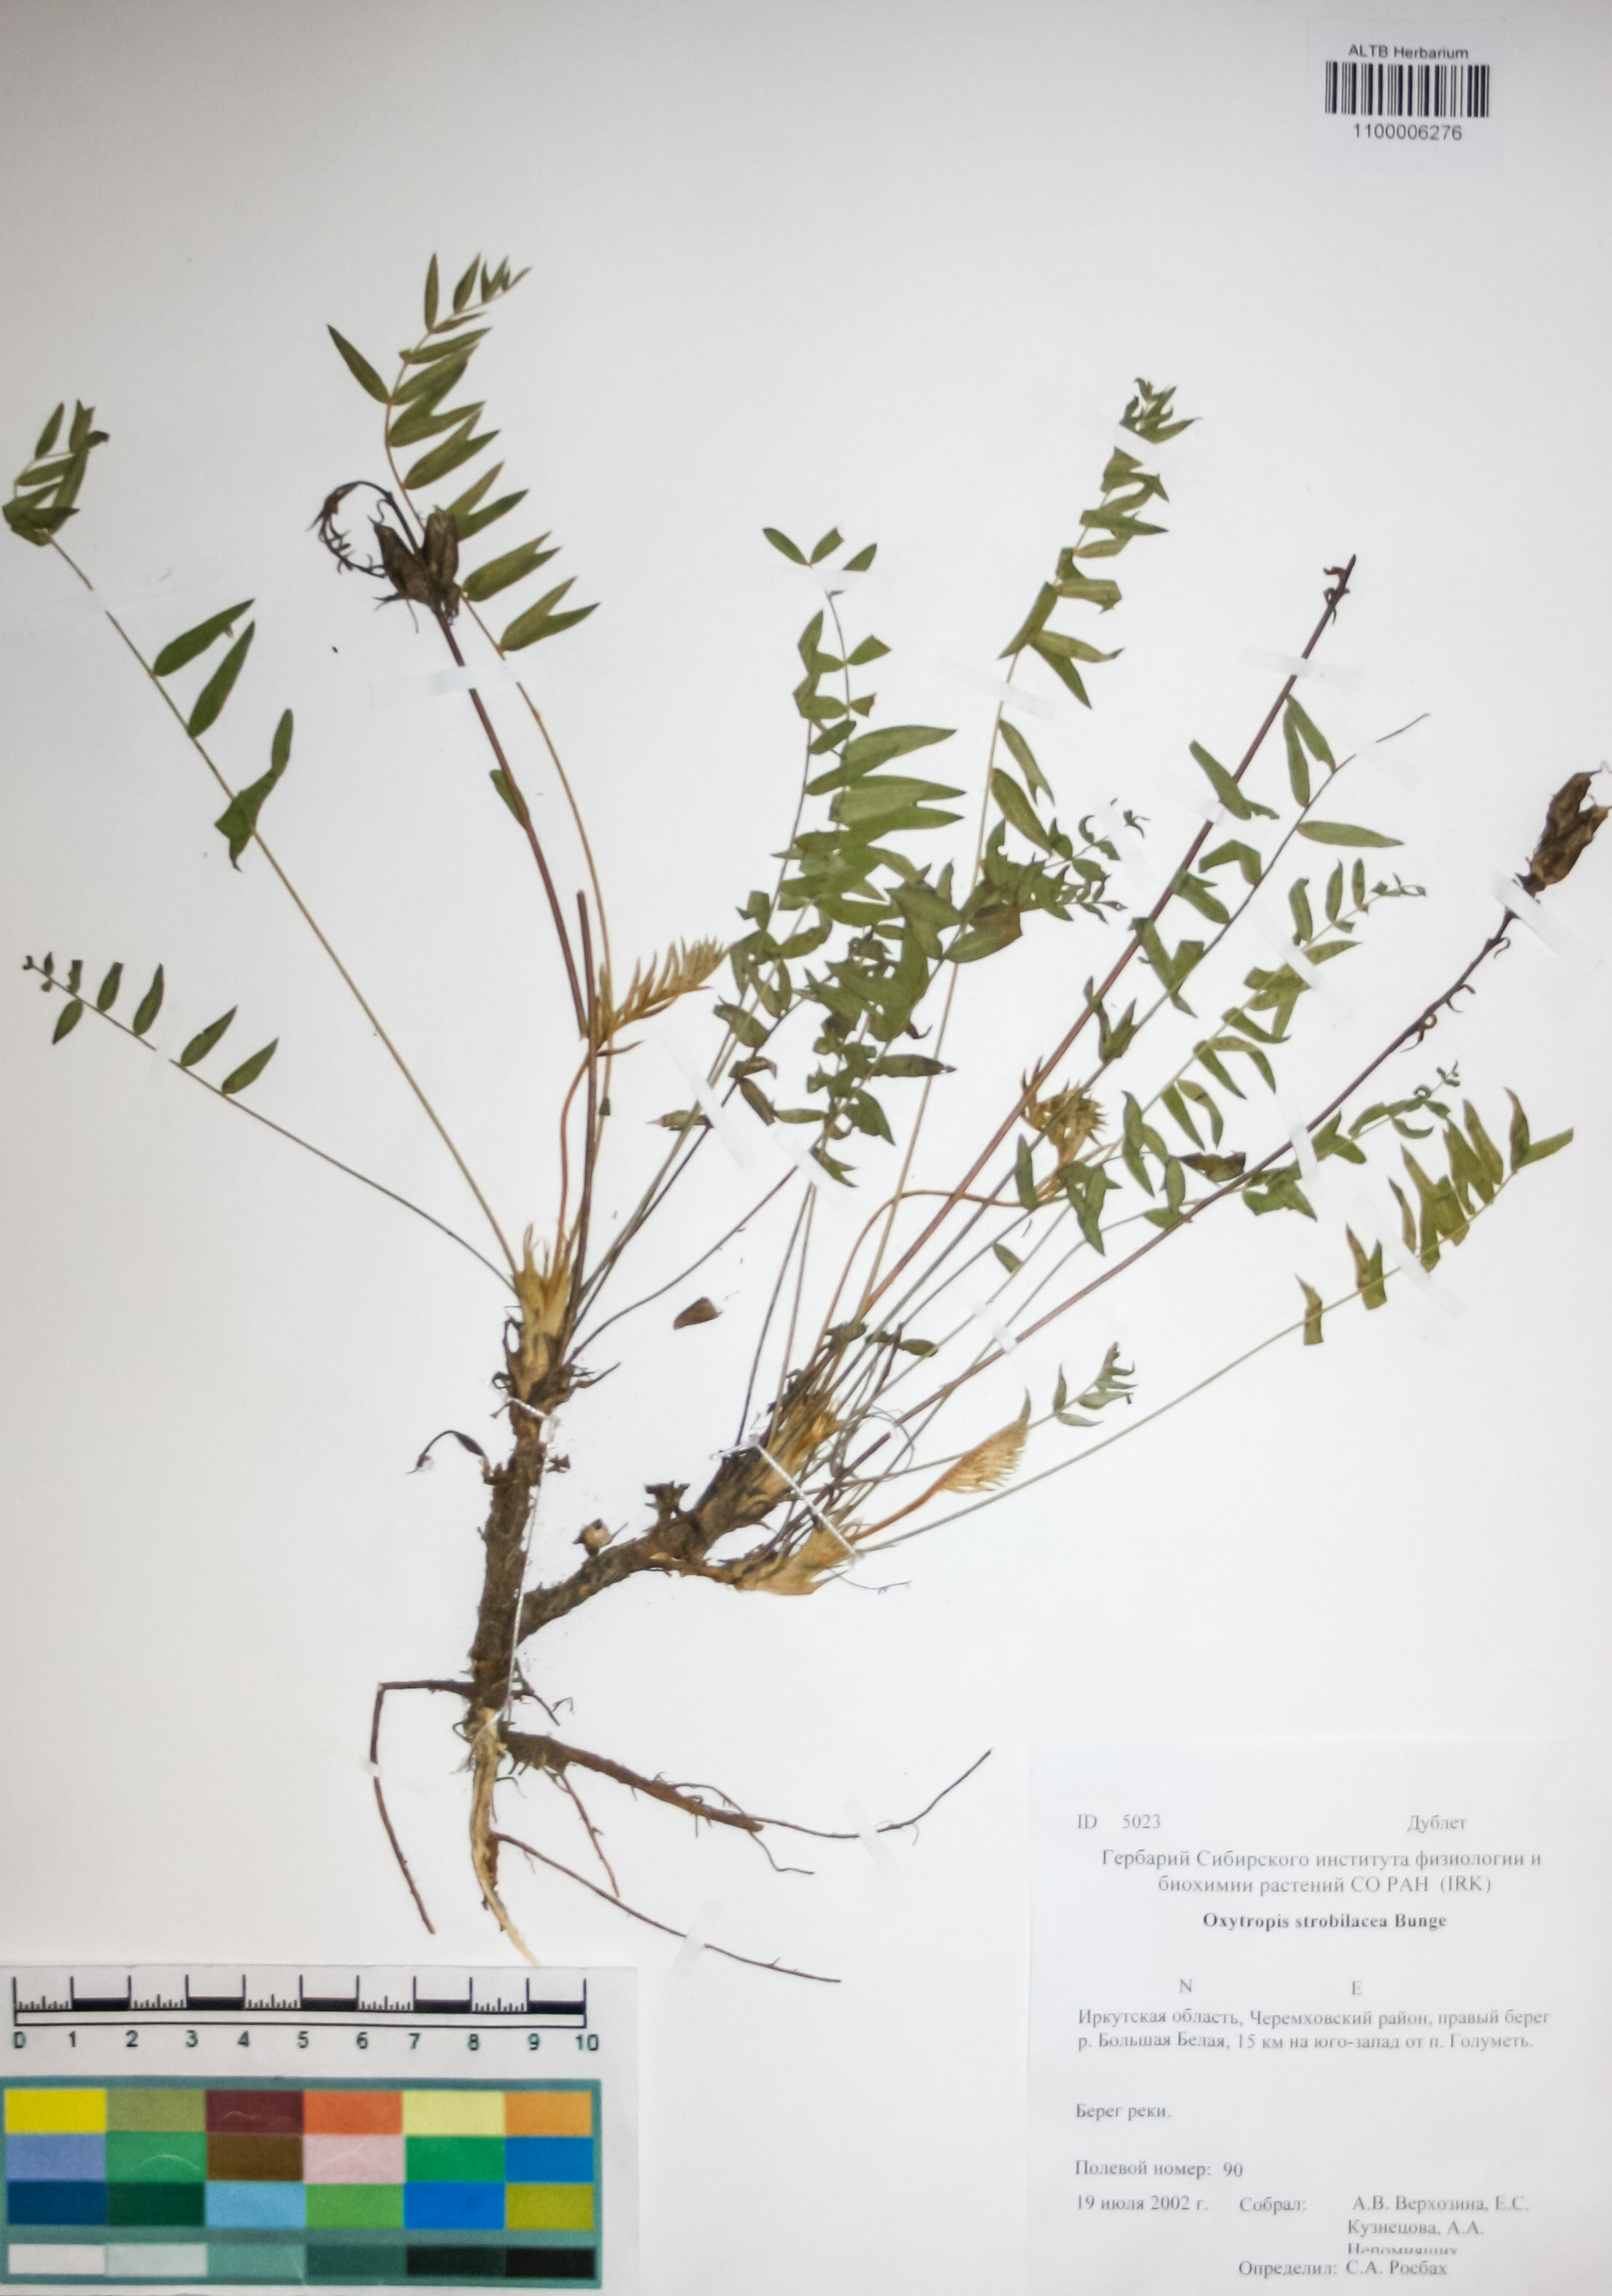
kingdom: Plantae
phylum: Tracheophyta
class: Magnoliopsida
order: Fabales
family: Fabaceae
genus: Oxytropis
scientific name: Oxytropis strobilacea
